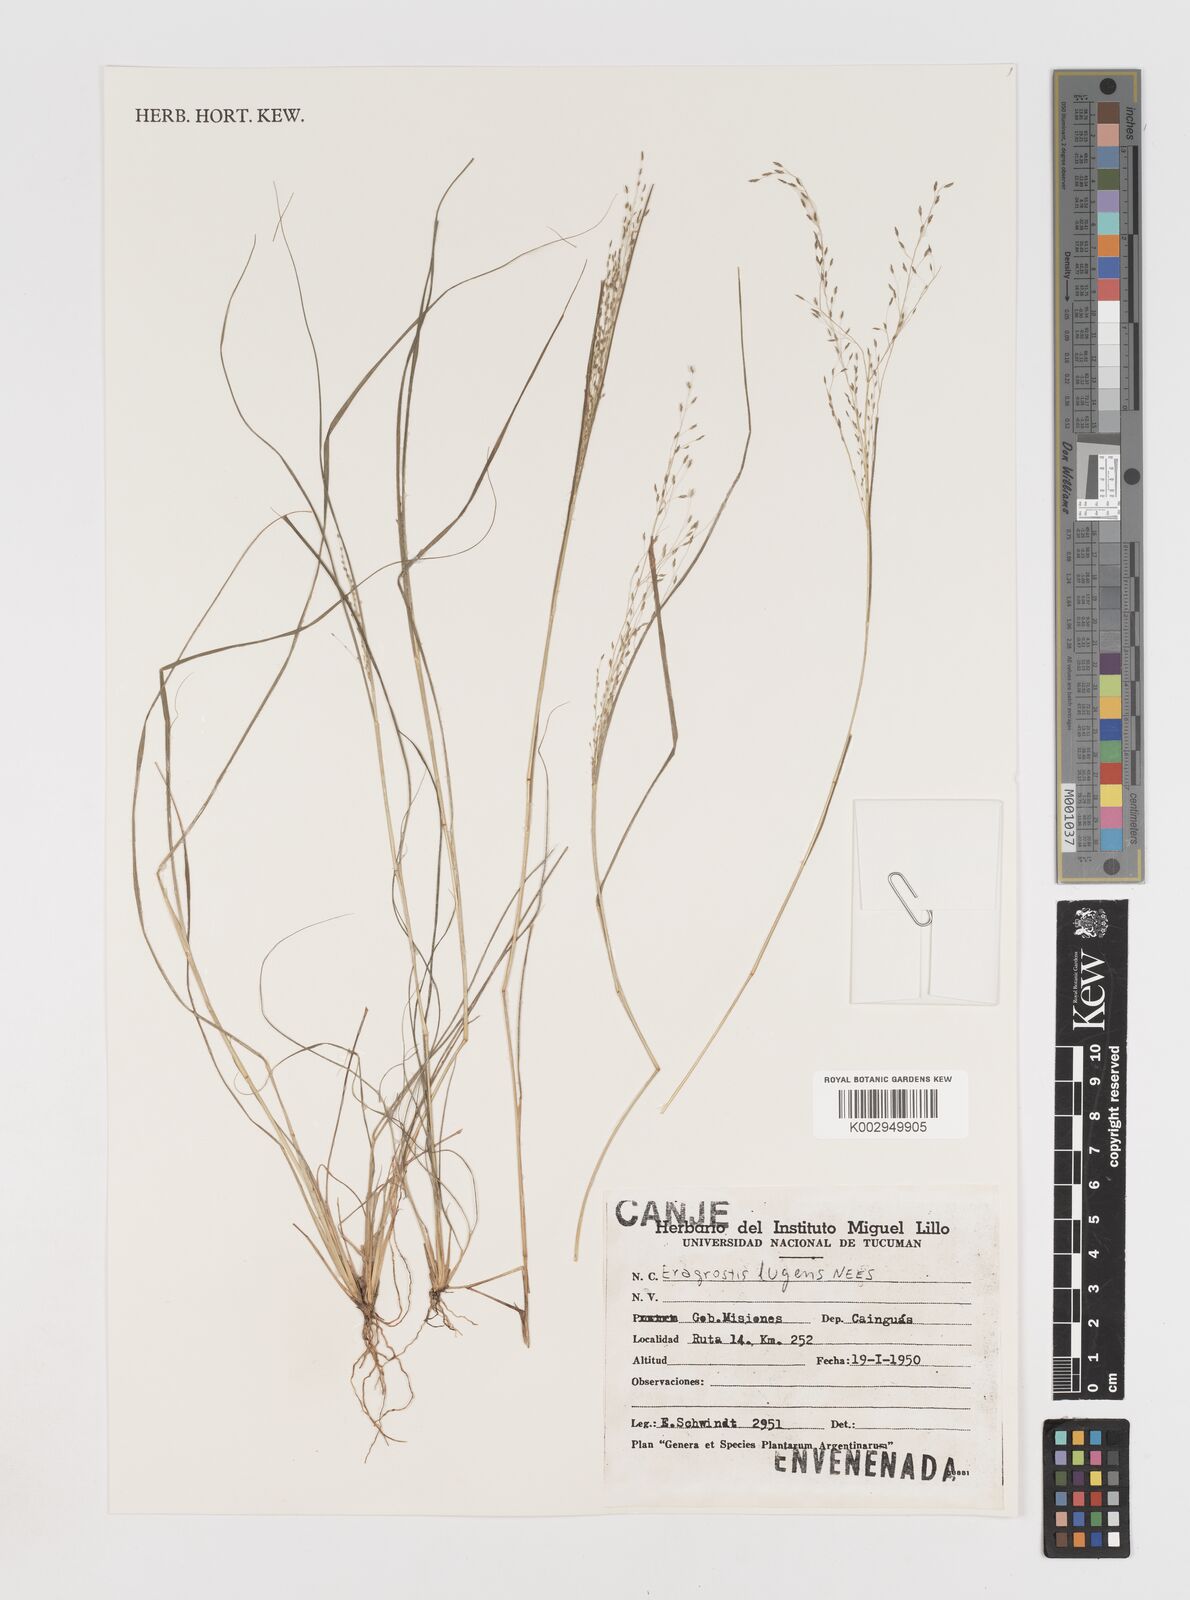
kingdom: Plantae
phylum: Tracheophyta
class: Liliopsida
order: Poales
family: Poaceae
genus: Eragrostis
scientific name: Eragrostis lugens
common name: Mourning love grass
